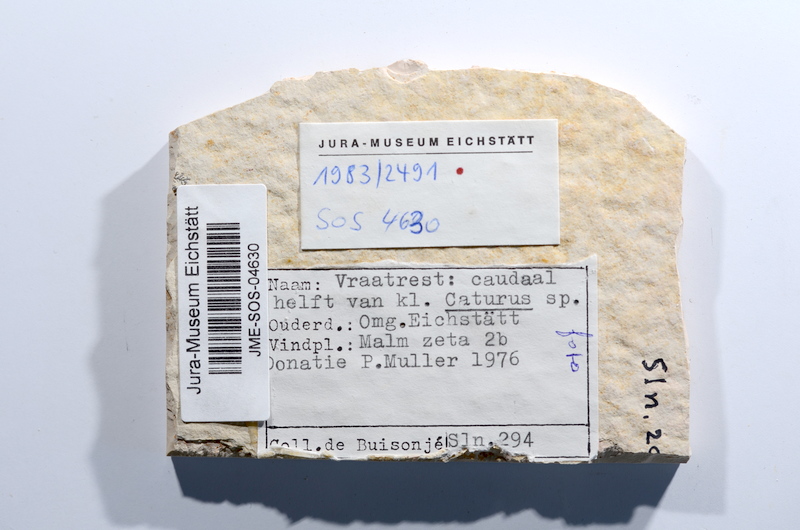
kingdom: Animalia
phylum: Chordata
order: Amiiformes
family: Caturidae
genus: Caturus
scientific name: Caturus
